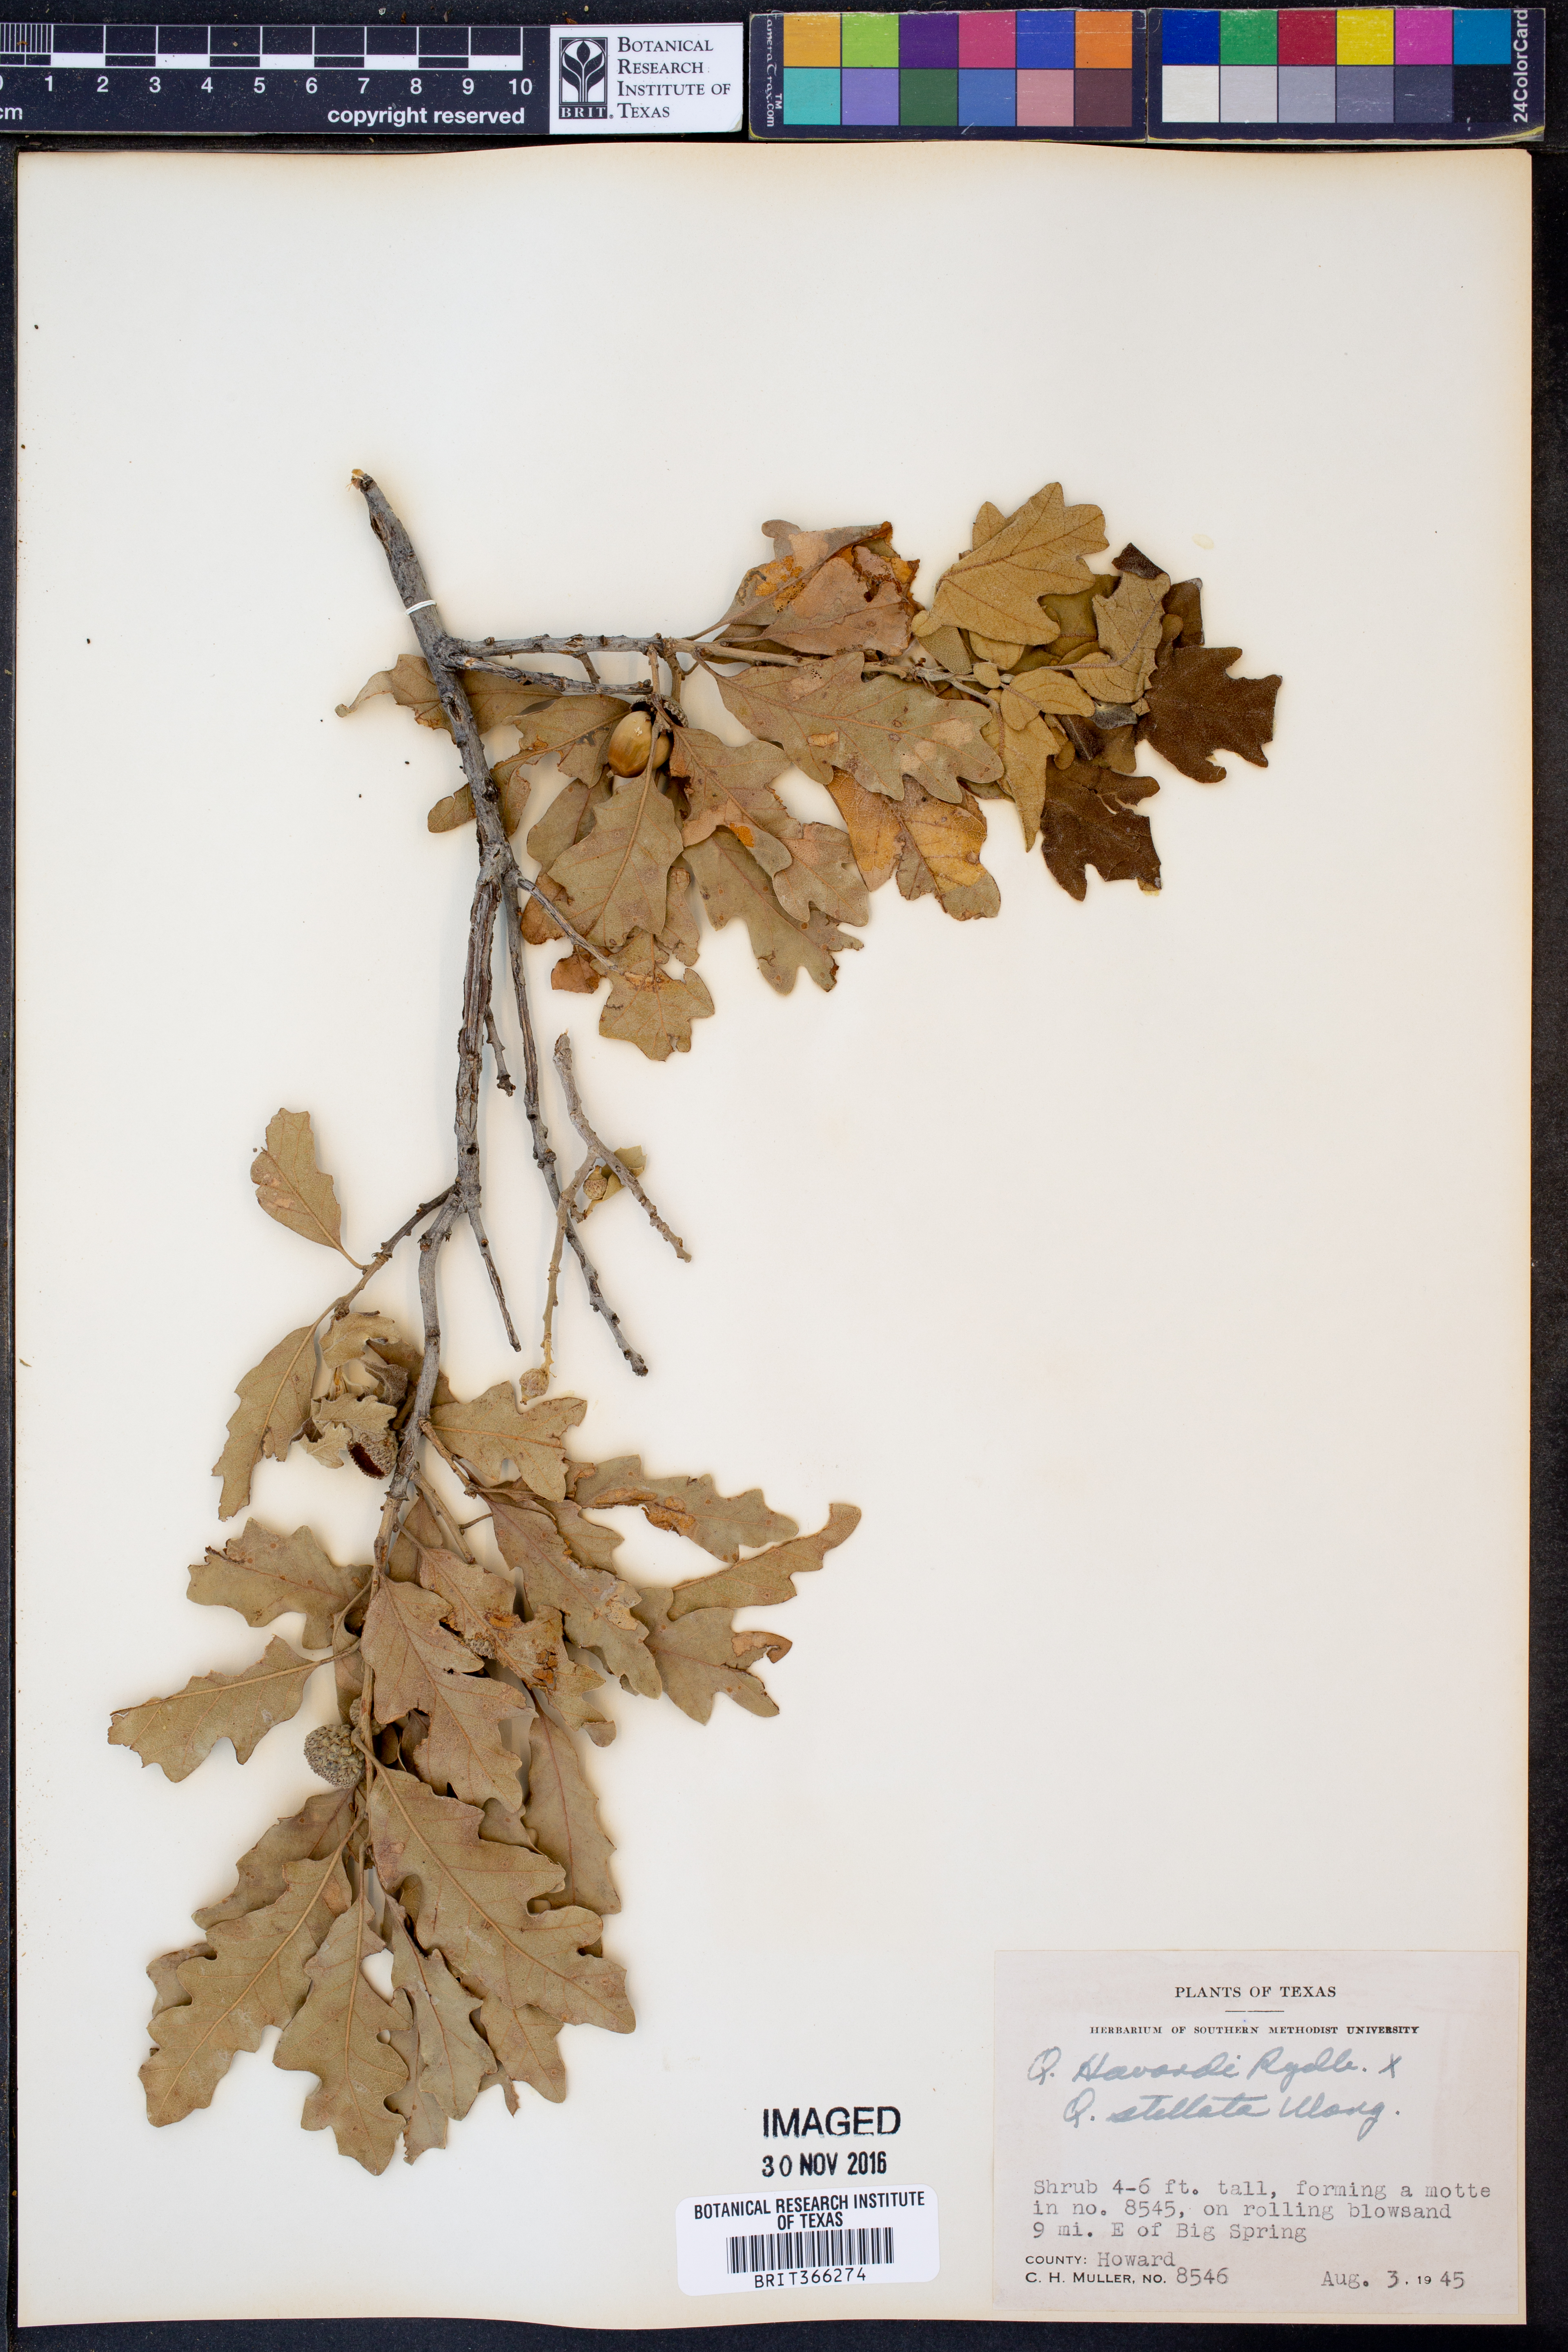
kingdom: Plantae
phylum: Tracheophyta
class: Magnoliopsida
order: Fagales
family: Fagaceae
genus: Quercus
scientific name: Quercus havardii
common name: Shinnery oak
